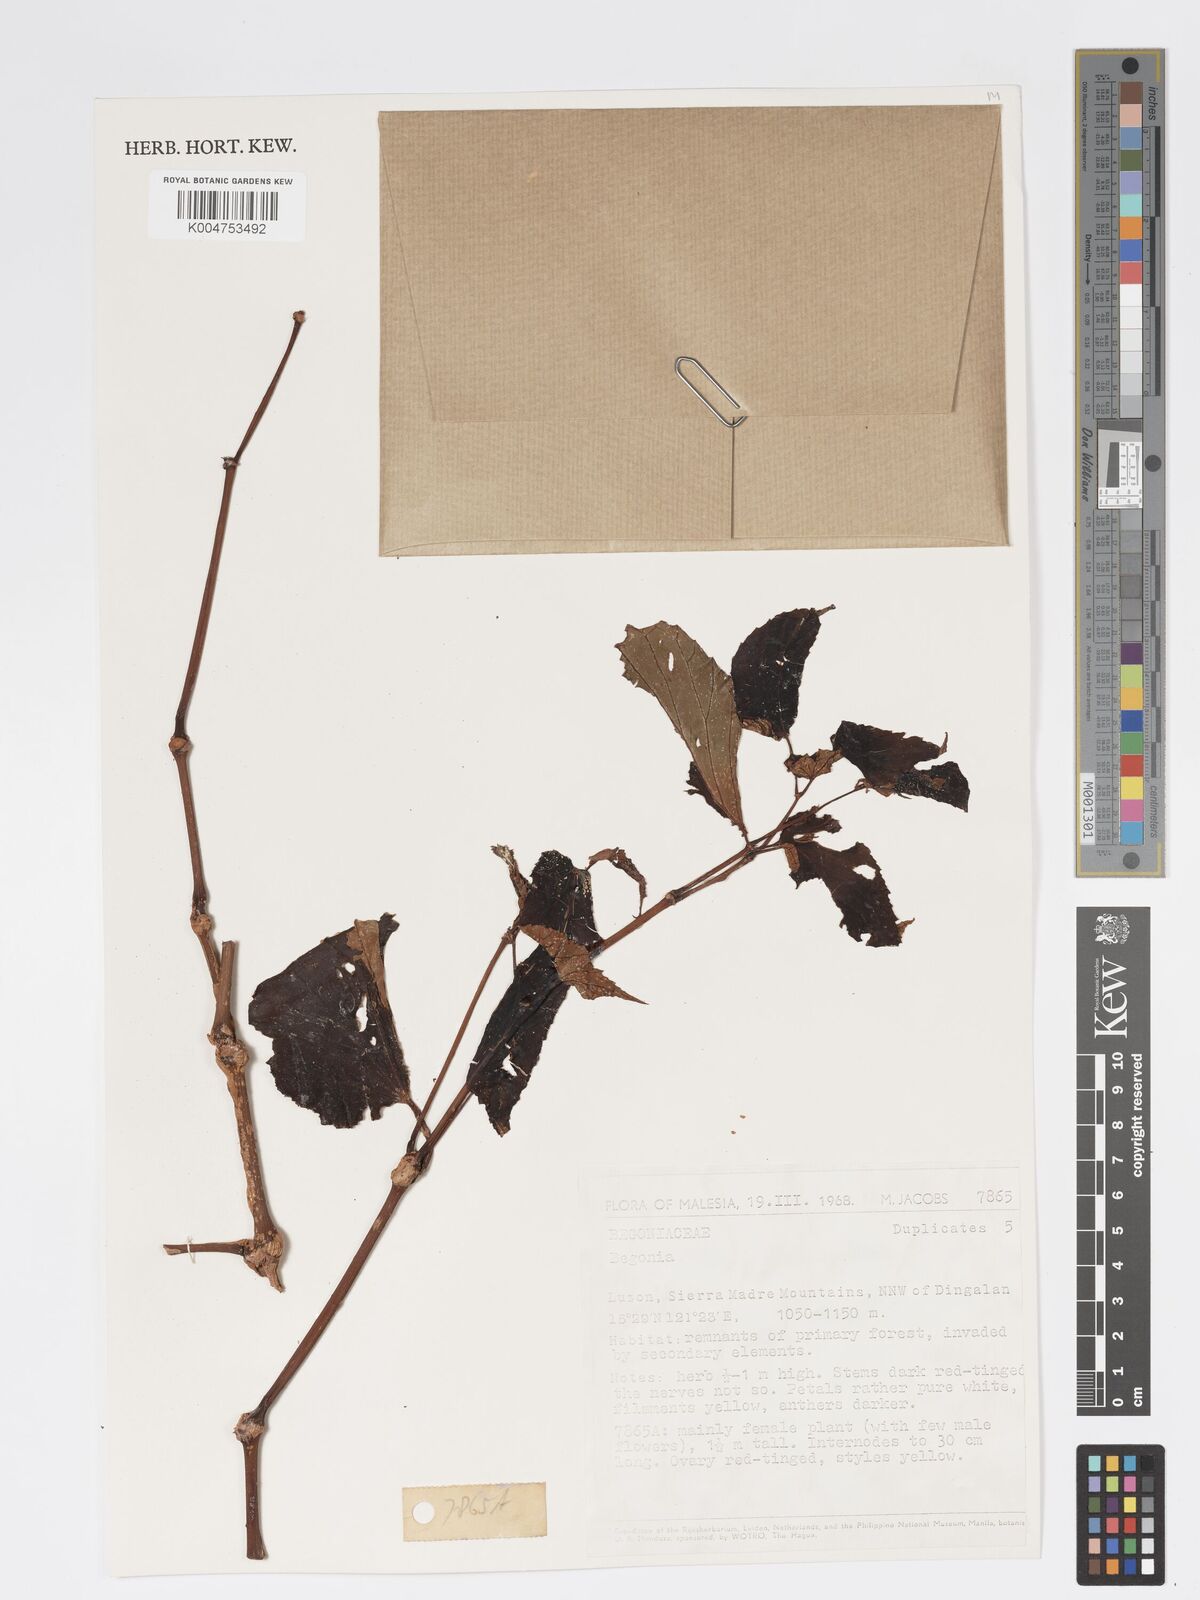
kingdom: Plantae
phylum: Tracheophyta
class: Magnoliopsida
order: Cucurbitales
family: Begoniaceae
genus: Begonia
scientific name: Begonia
